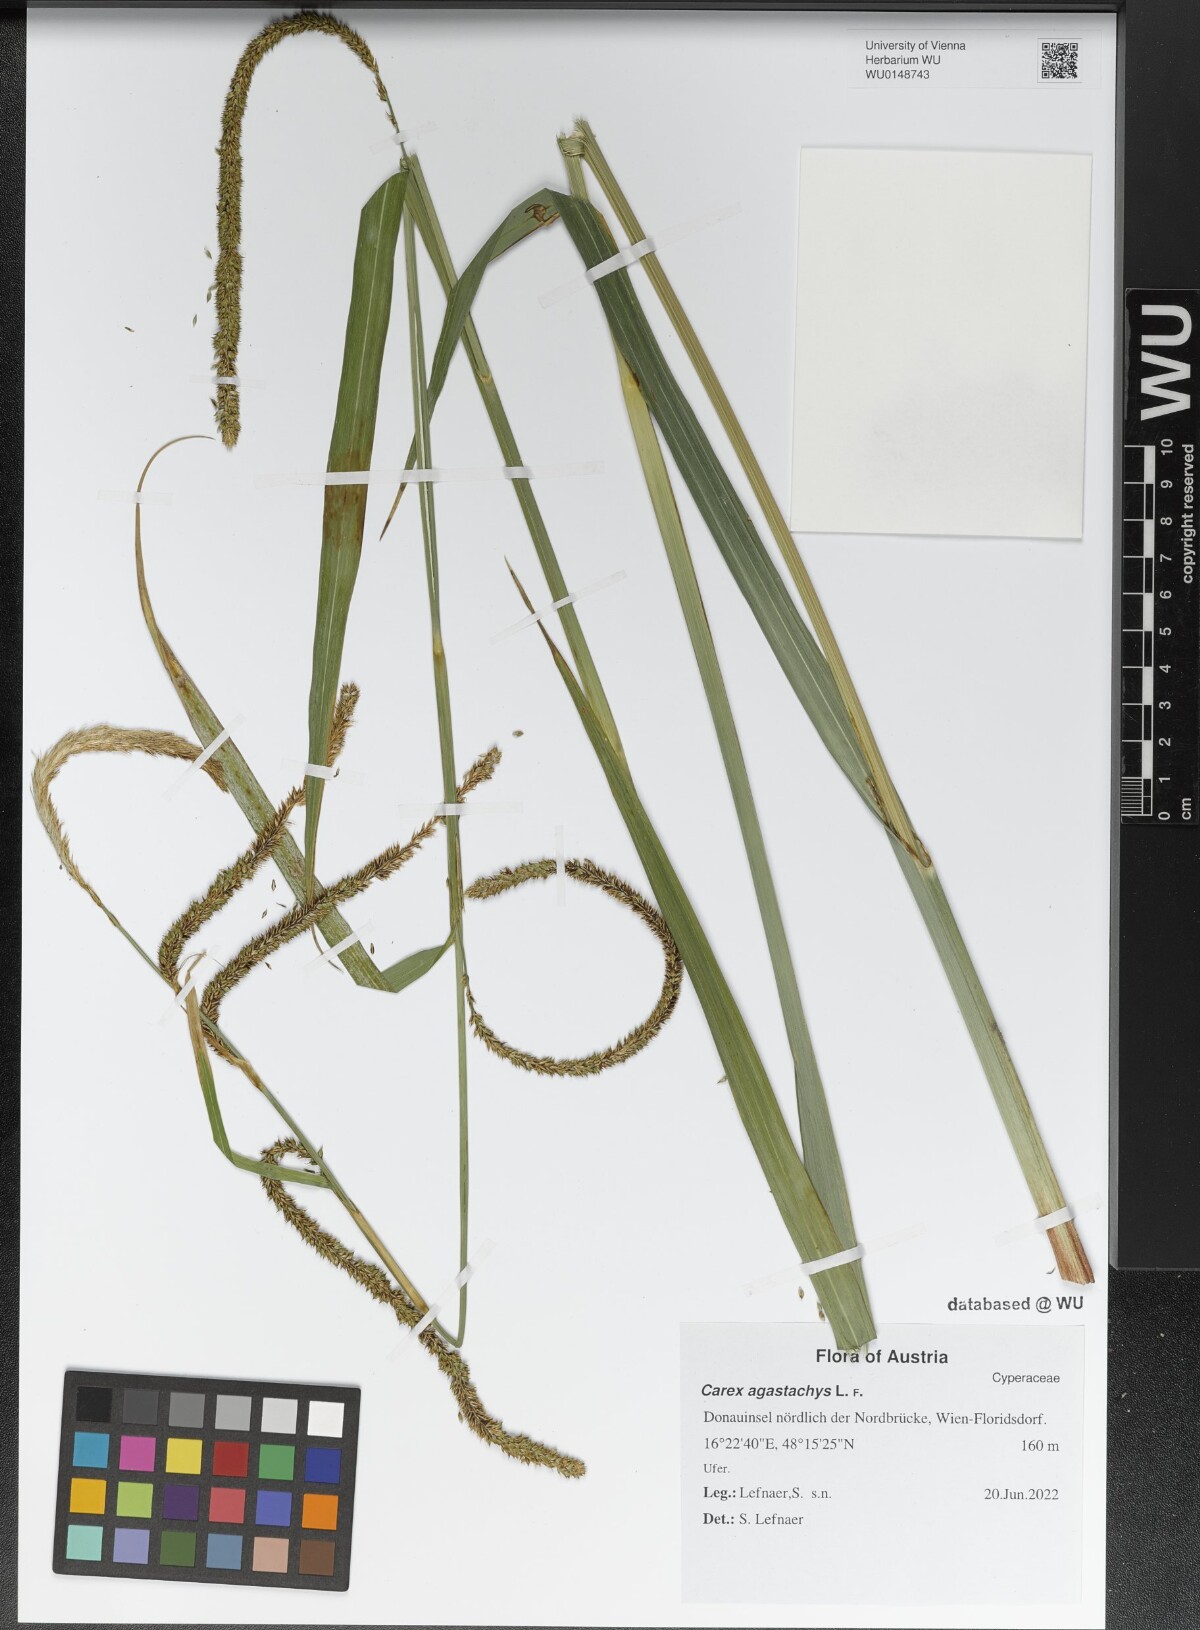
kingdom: Plantae
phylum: Tracheophyta
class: Liliopsida
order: Poales
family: Cyperaceae
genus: Carex
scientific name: Carex agastachys
